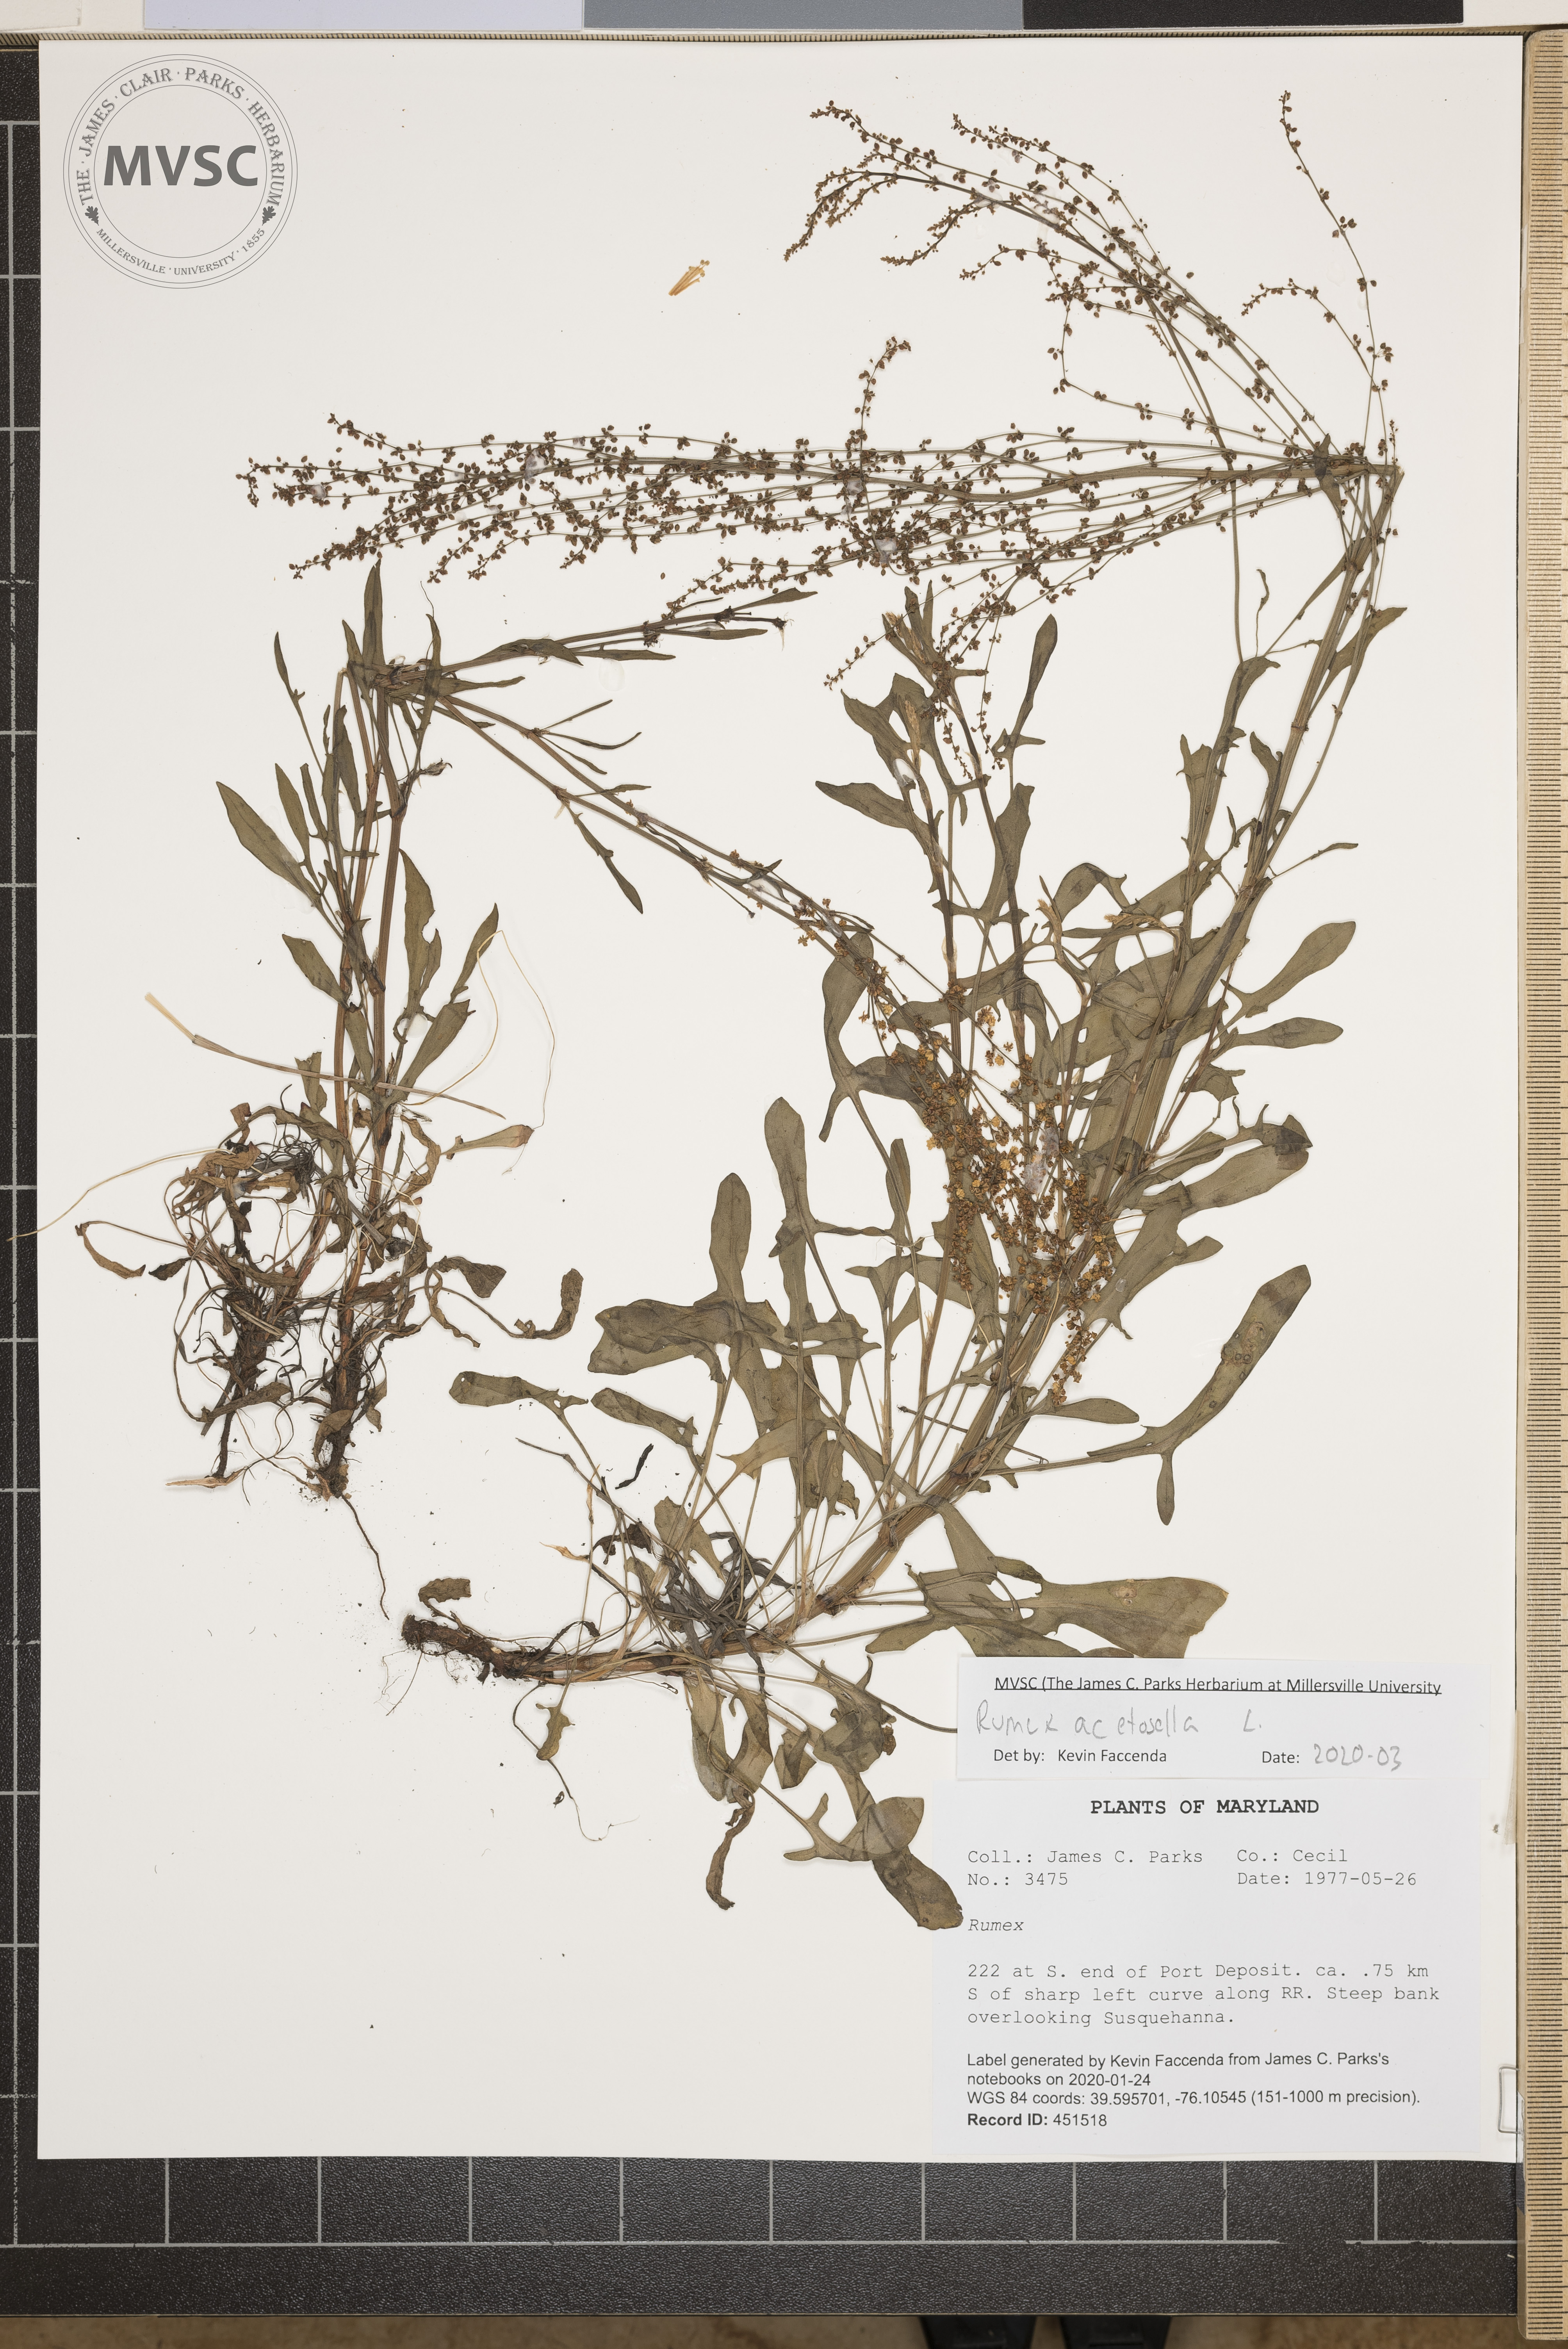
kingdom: Plantae
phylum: Tracheophyta
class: Magnoliopsida
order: Caryophyllales
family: Polygonaceae
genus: Rumex
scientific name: Rumex acetosella
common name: Common sheep sorrel
